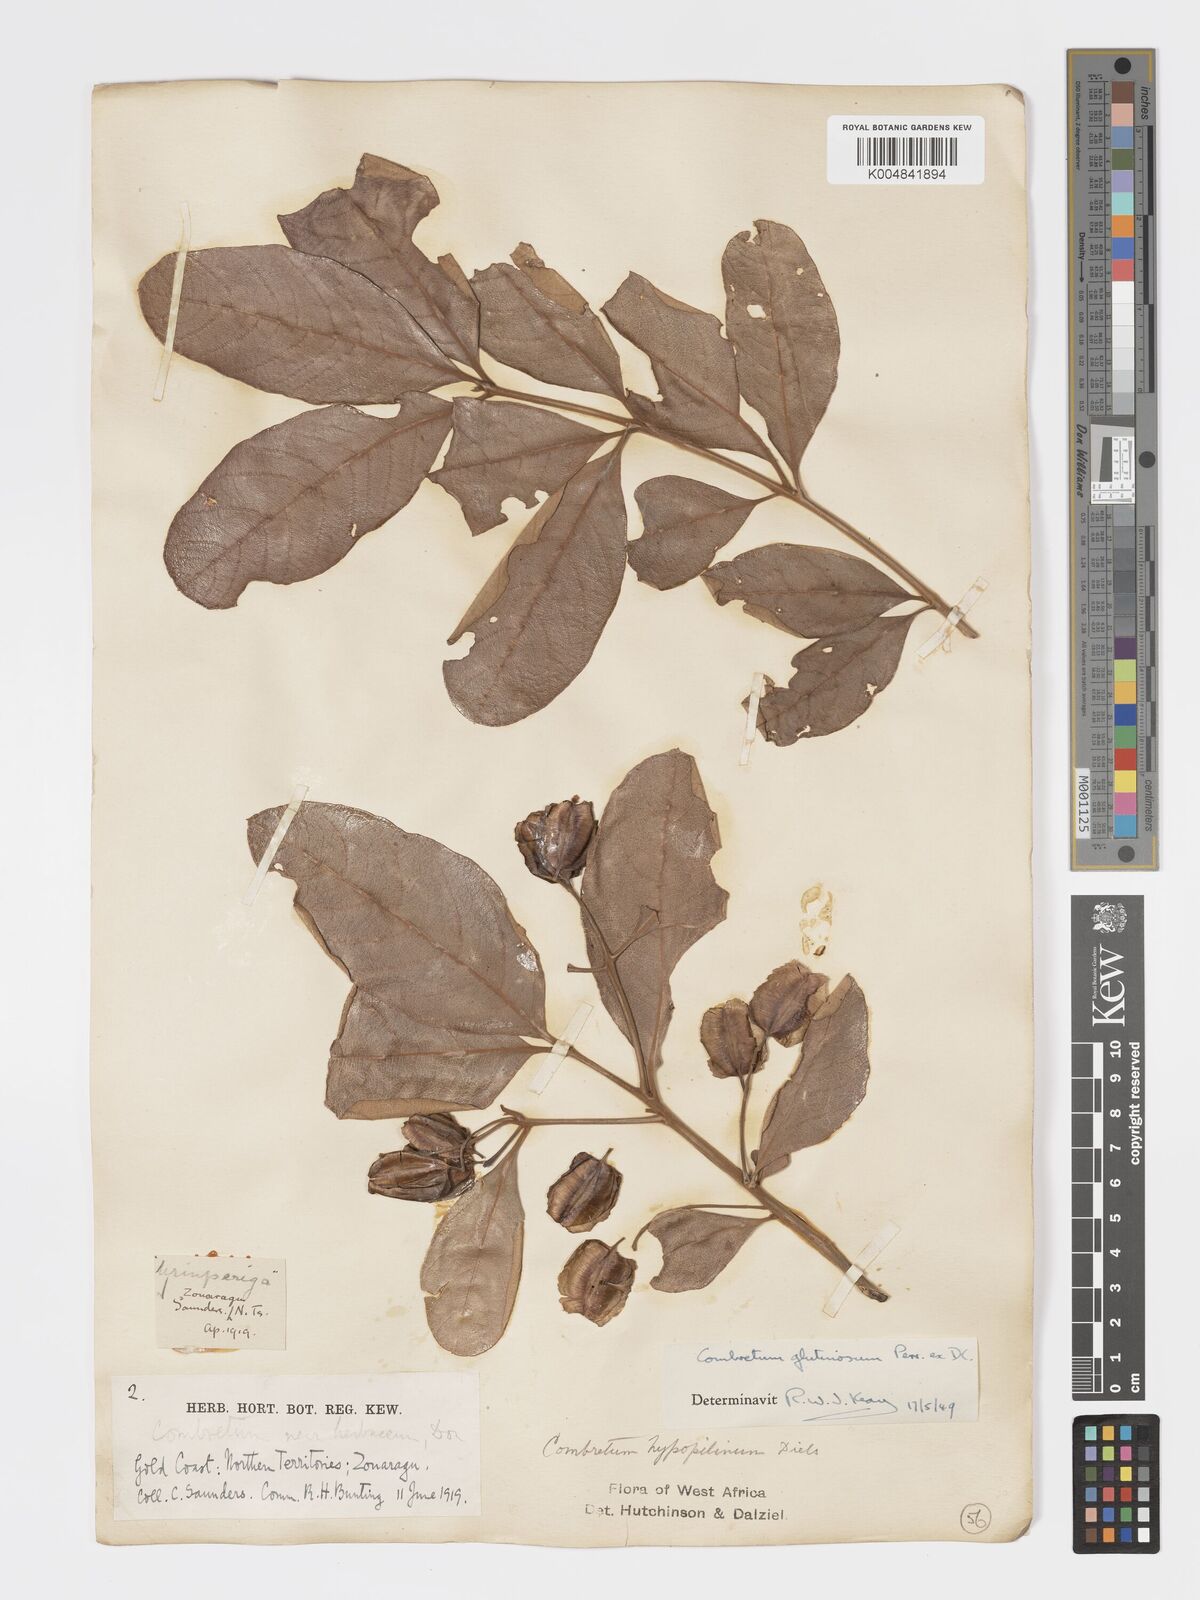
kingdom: Plantae
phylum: Tracheophyta
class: Magnoliopsida
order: Myrtales
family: Combretaceae
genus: Combretum
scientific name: Combretum
